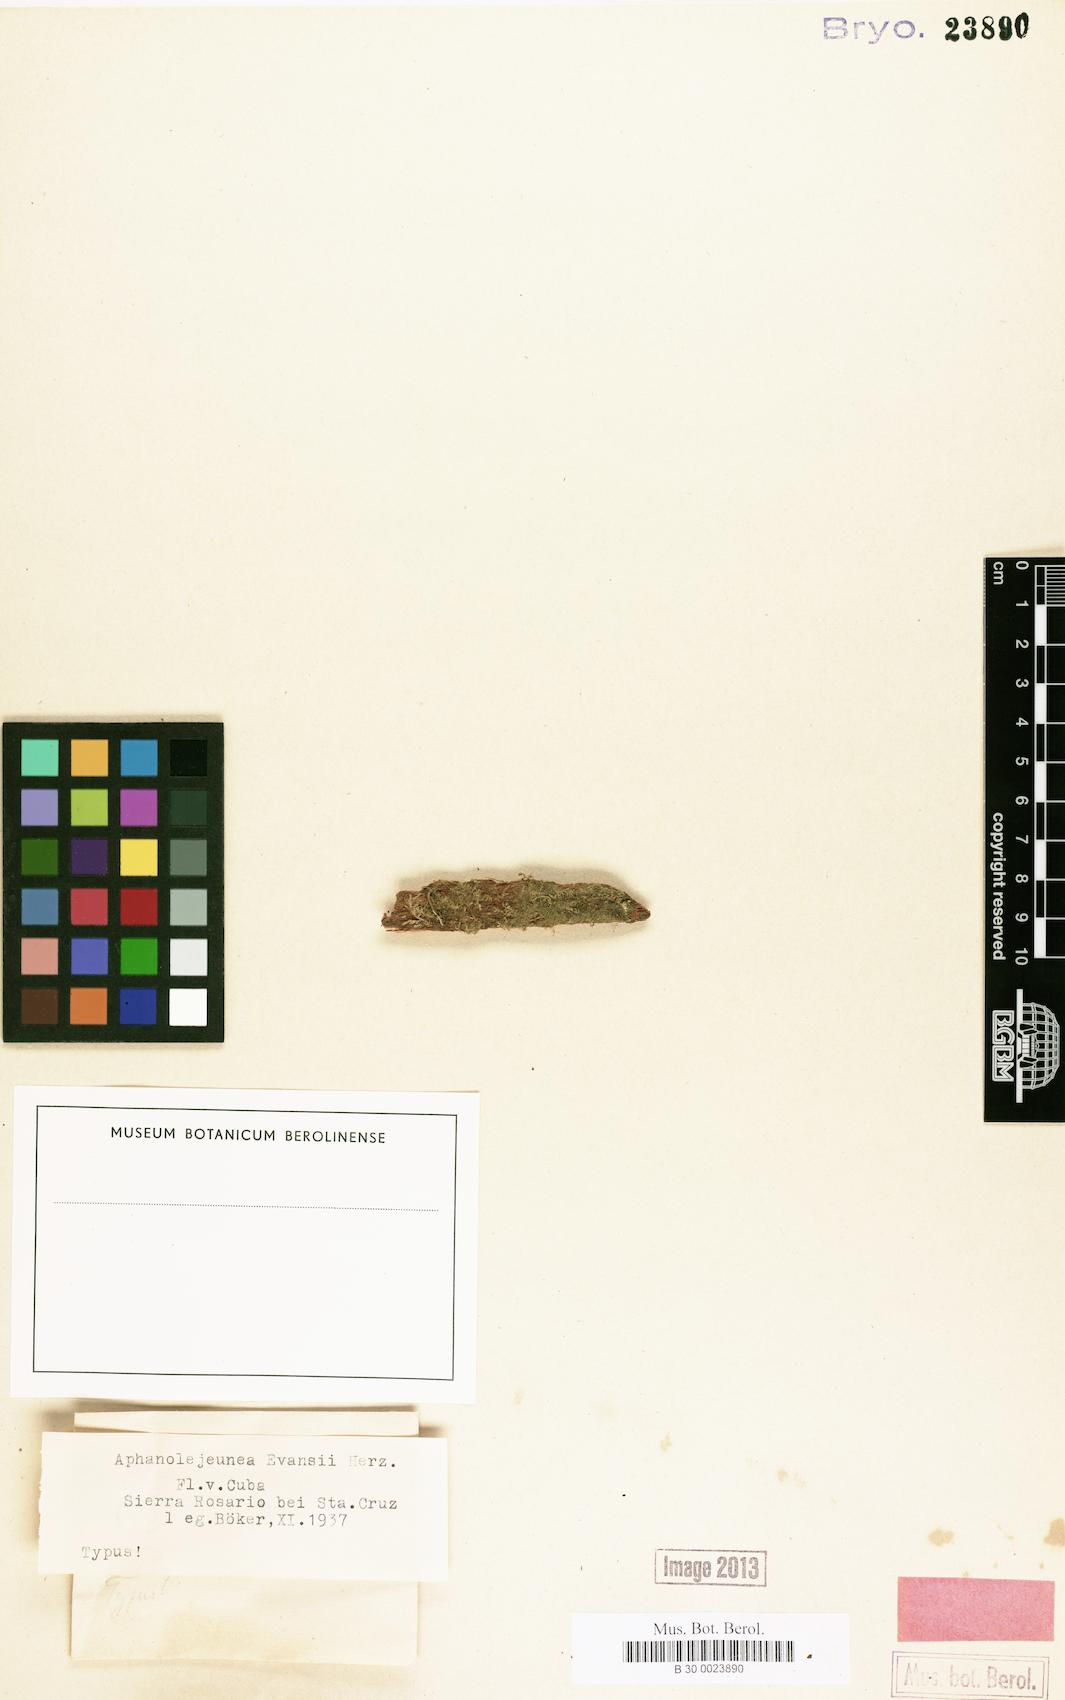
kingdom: Plantae
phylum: Marchantiophyta
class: Jungermanniopsida
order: Porellales
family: Lejeuneaceae
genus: Cololejeunea
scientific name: Cololejeunea cubensis
